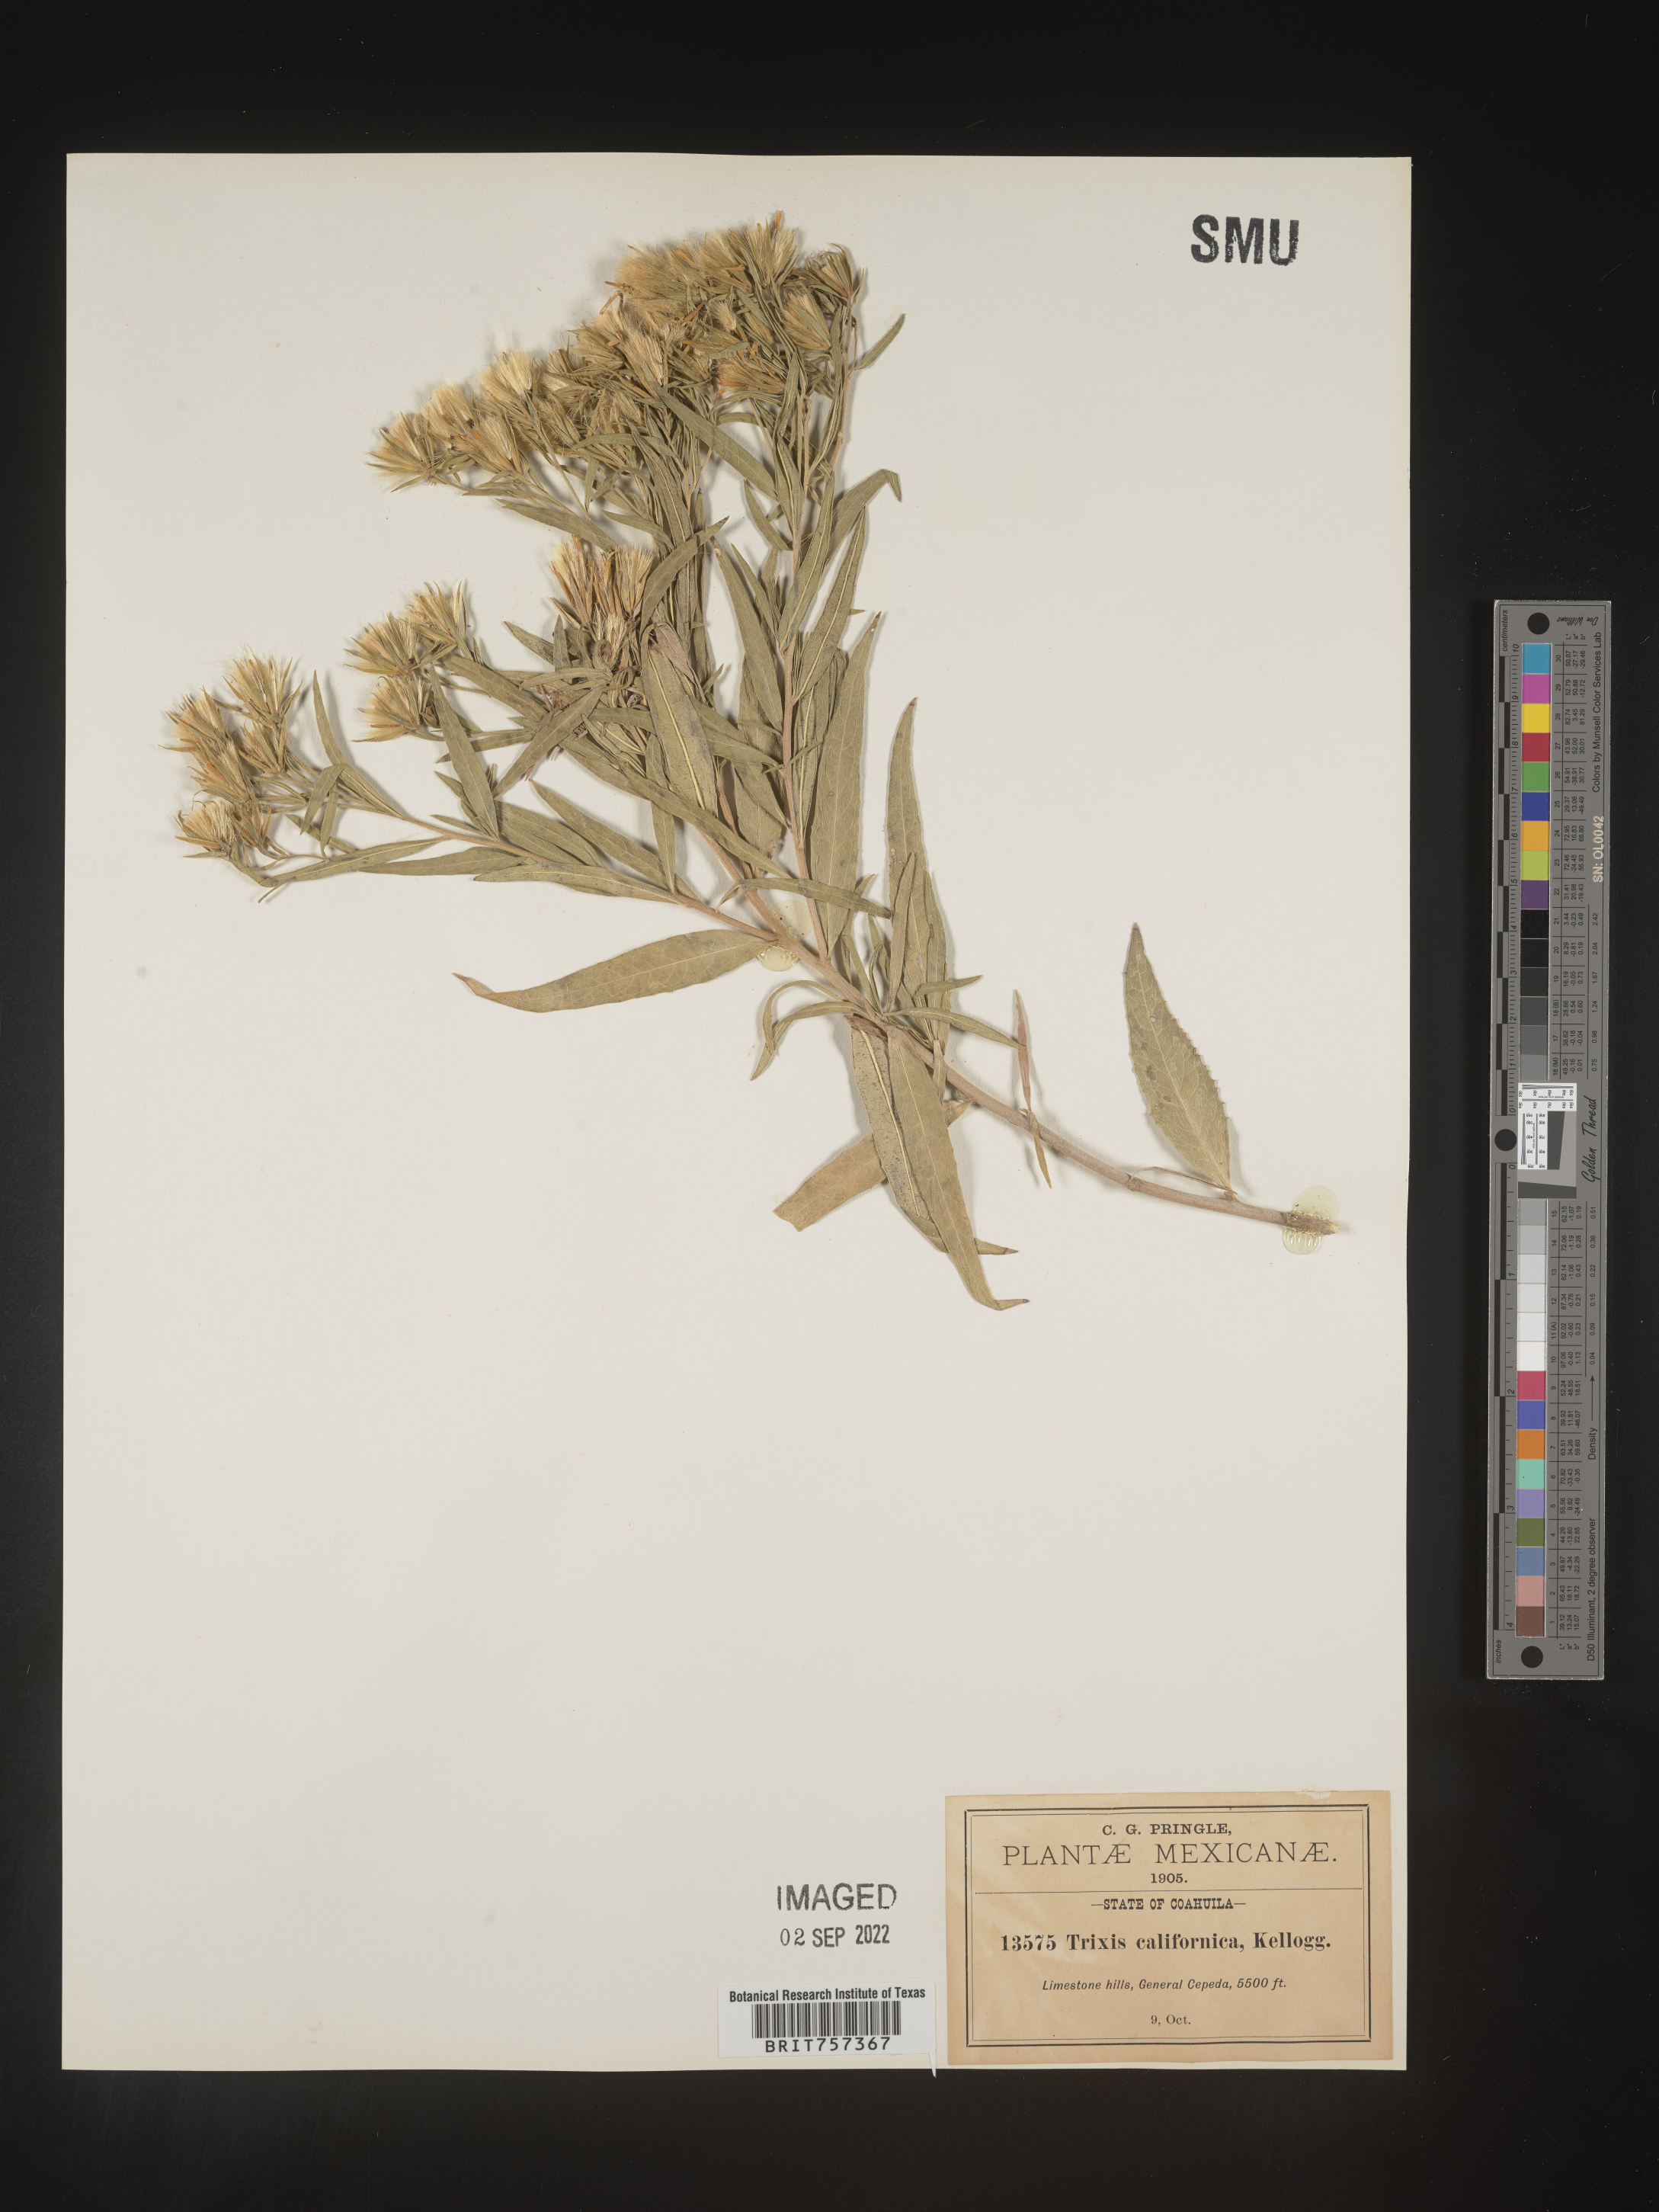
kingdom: Plantae
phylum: Tracheophyta
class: Magnoliopsida
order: Asterales
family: Asteraceae
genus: Trixis
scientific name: Trixis
